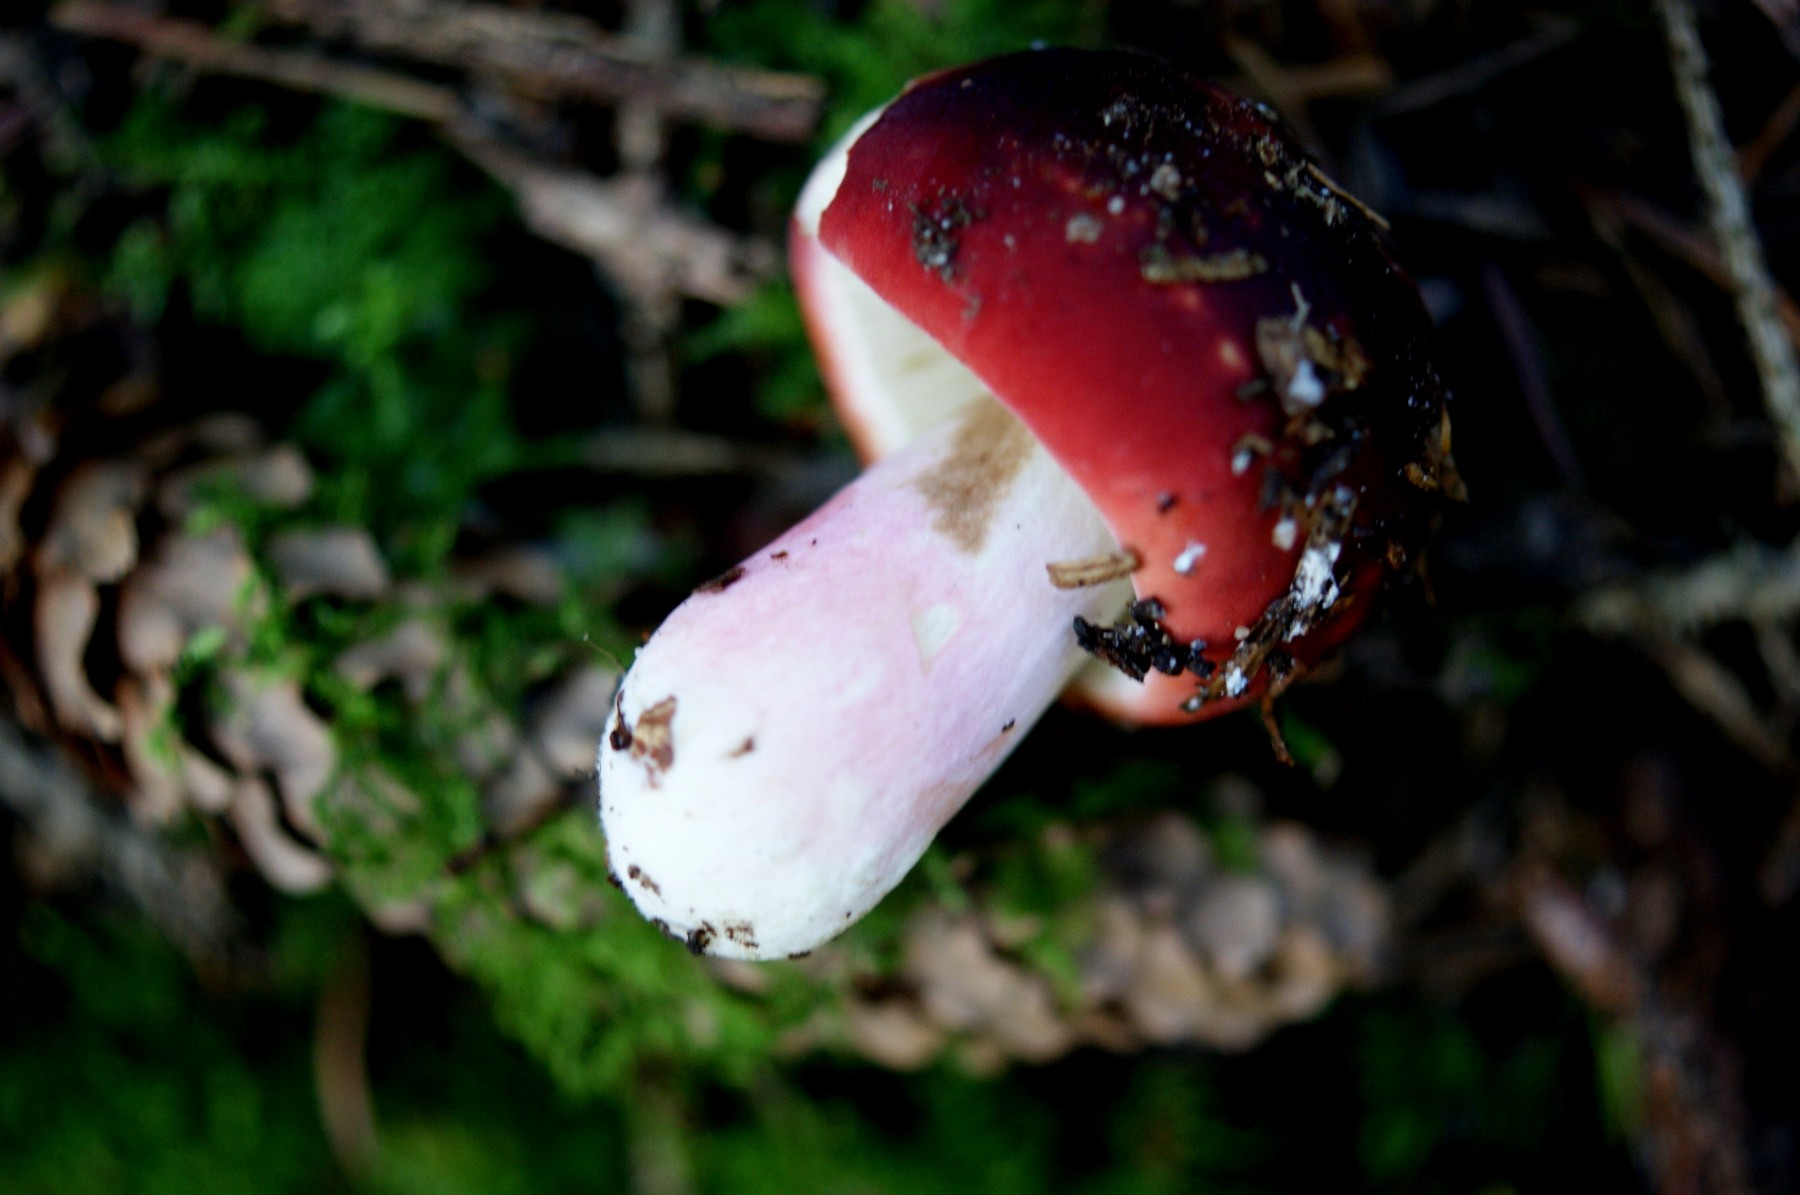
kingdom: Fungi
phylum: Basidiomycota
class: Agaricomycetes
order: Russulales
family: Russulaceae
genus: Russula
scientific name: Russula xerampelina
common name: hummer-skørhat
